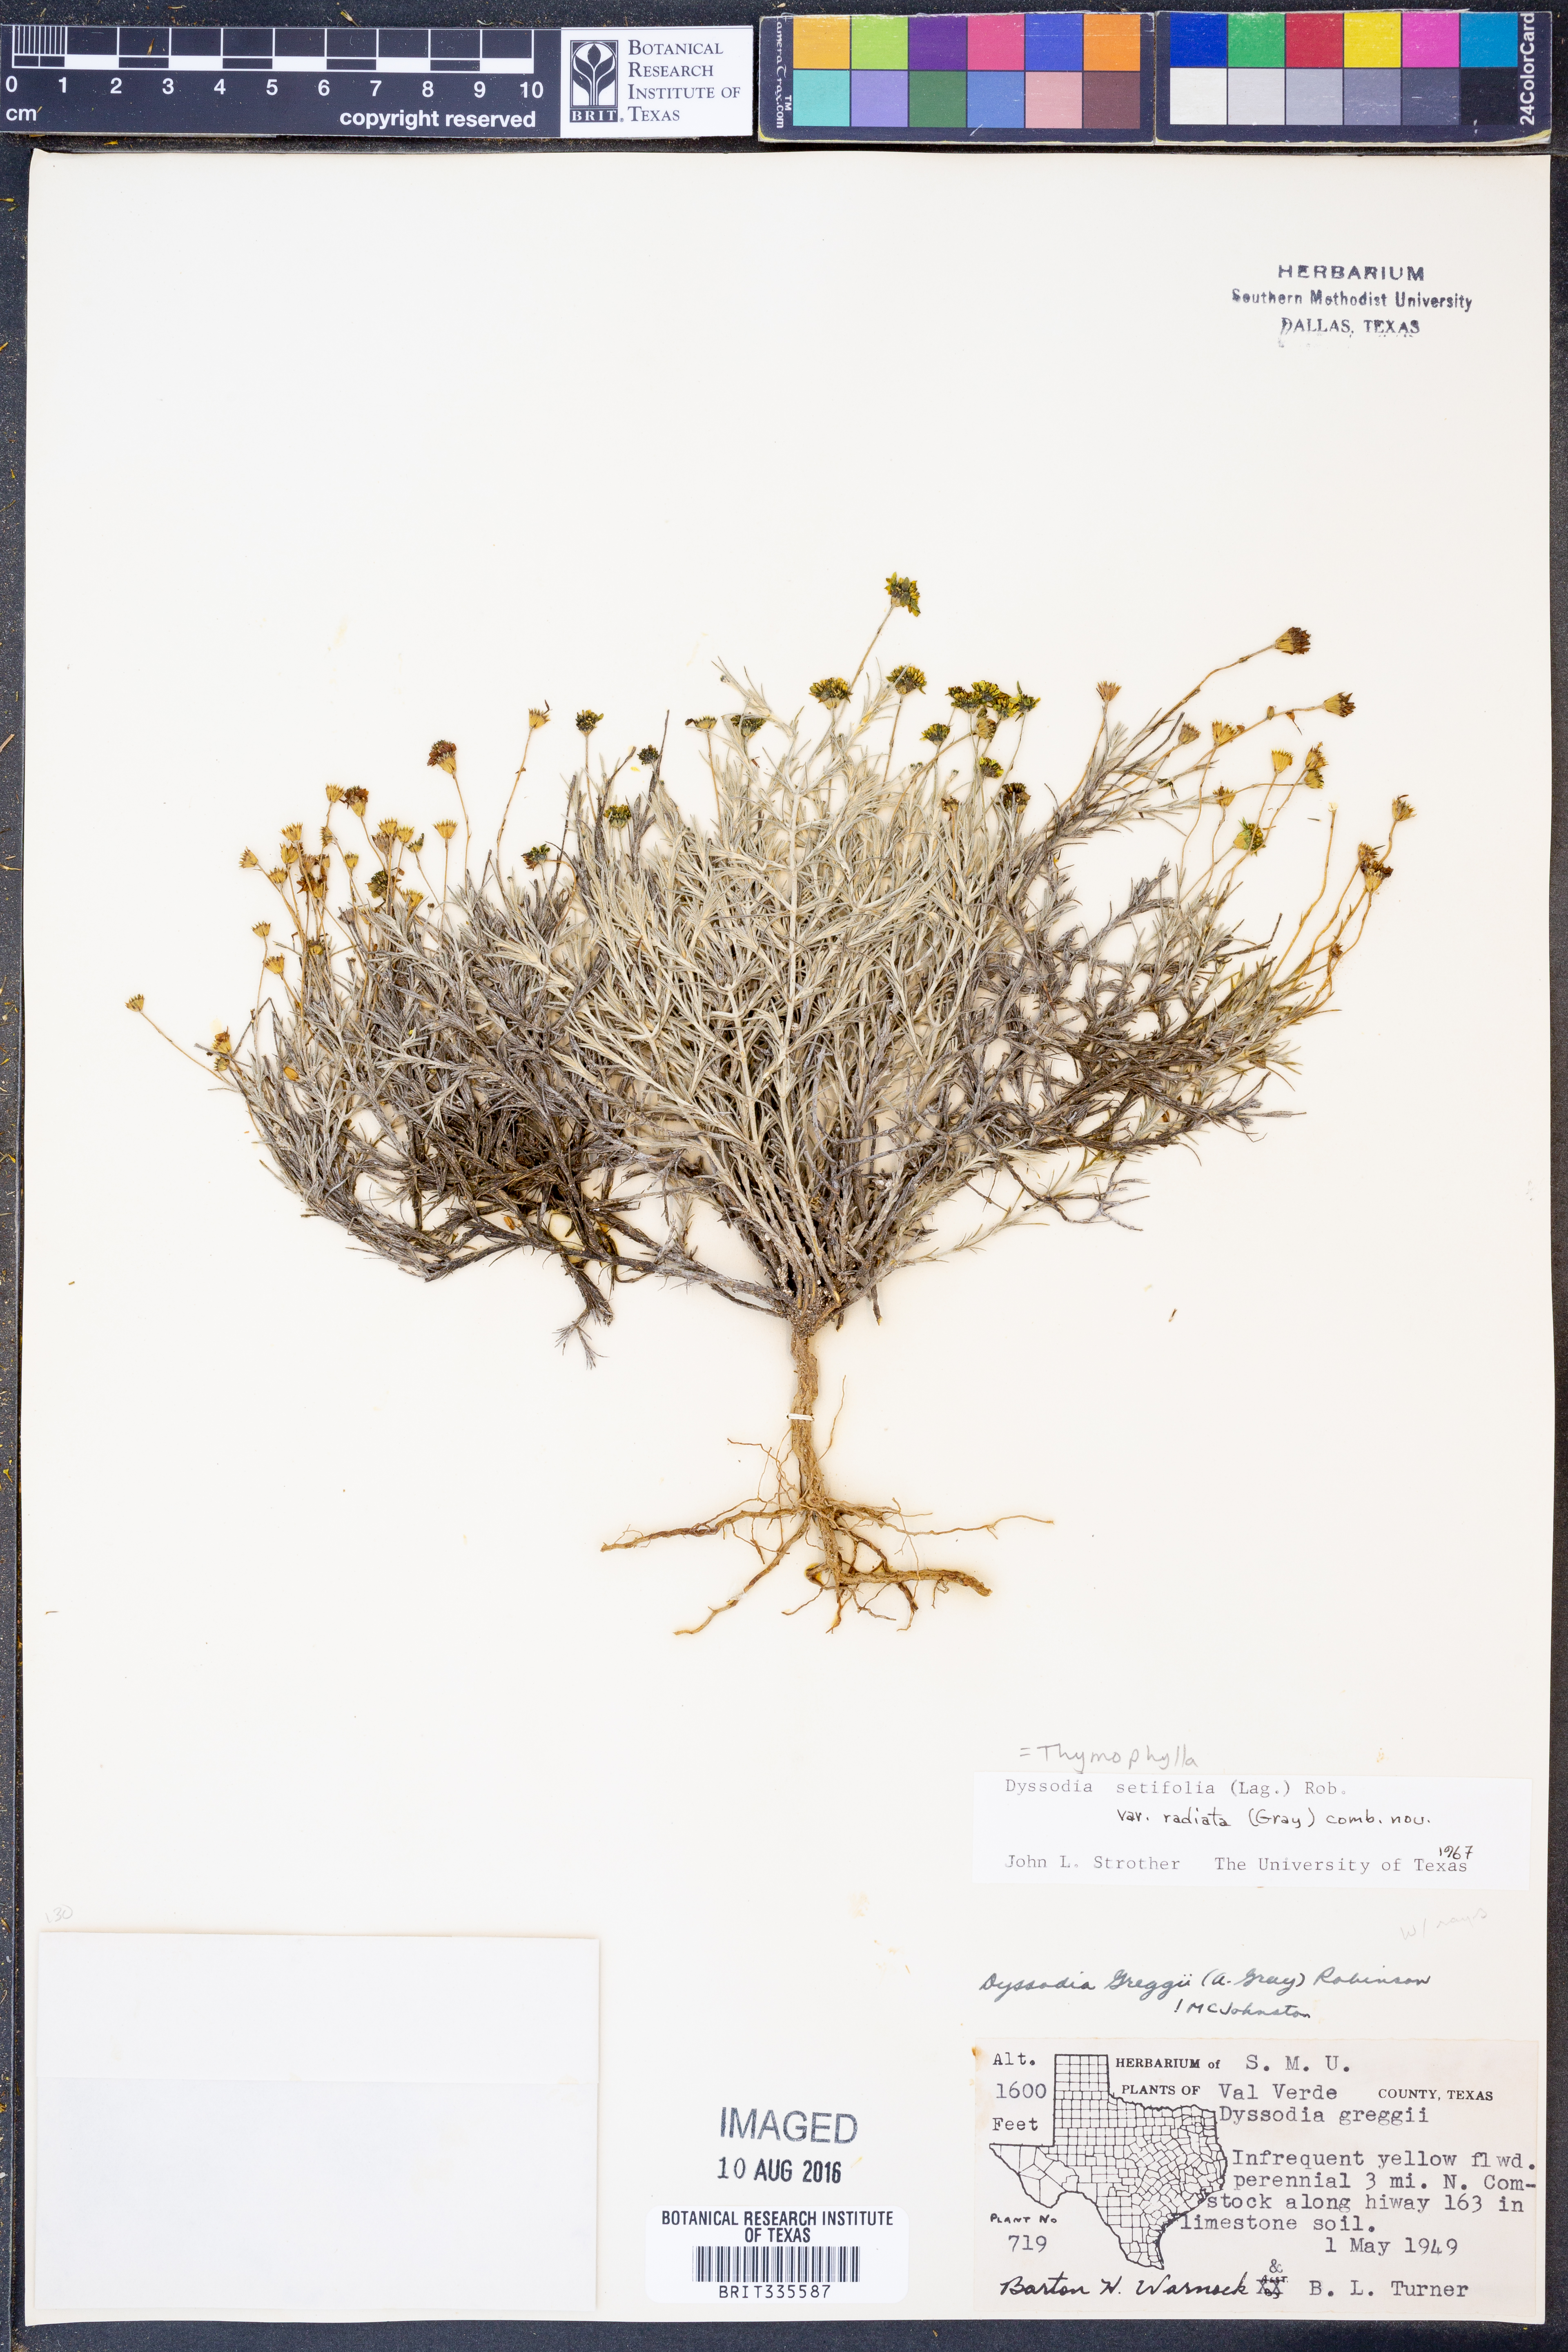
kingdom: Plantae
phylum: Tracheophyta
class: Magnoliopsida
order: Asterales
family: Asteraceae
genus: Thymophylla
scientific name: Thymophylla setifolia
